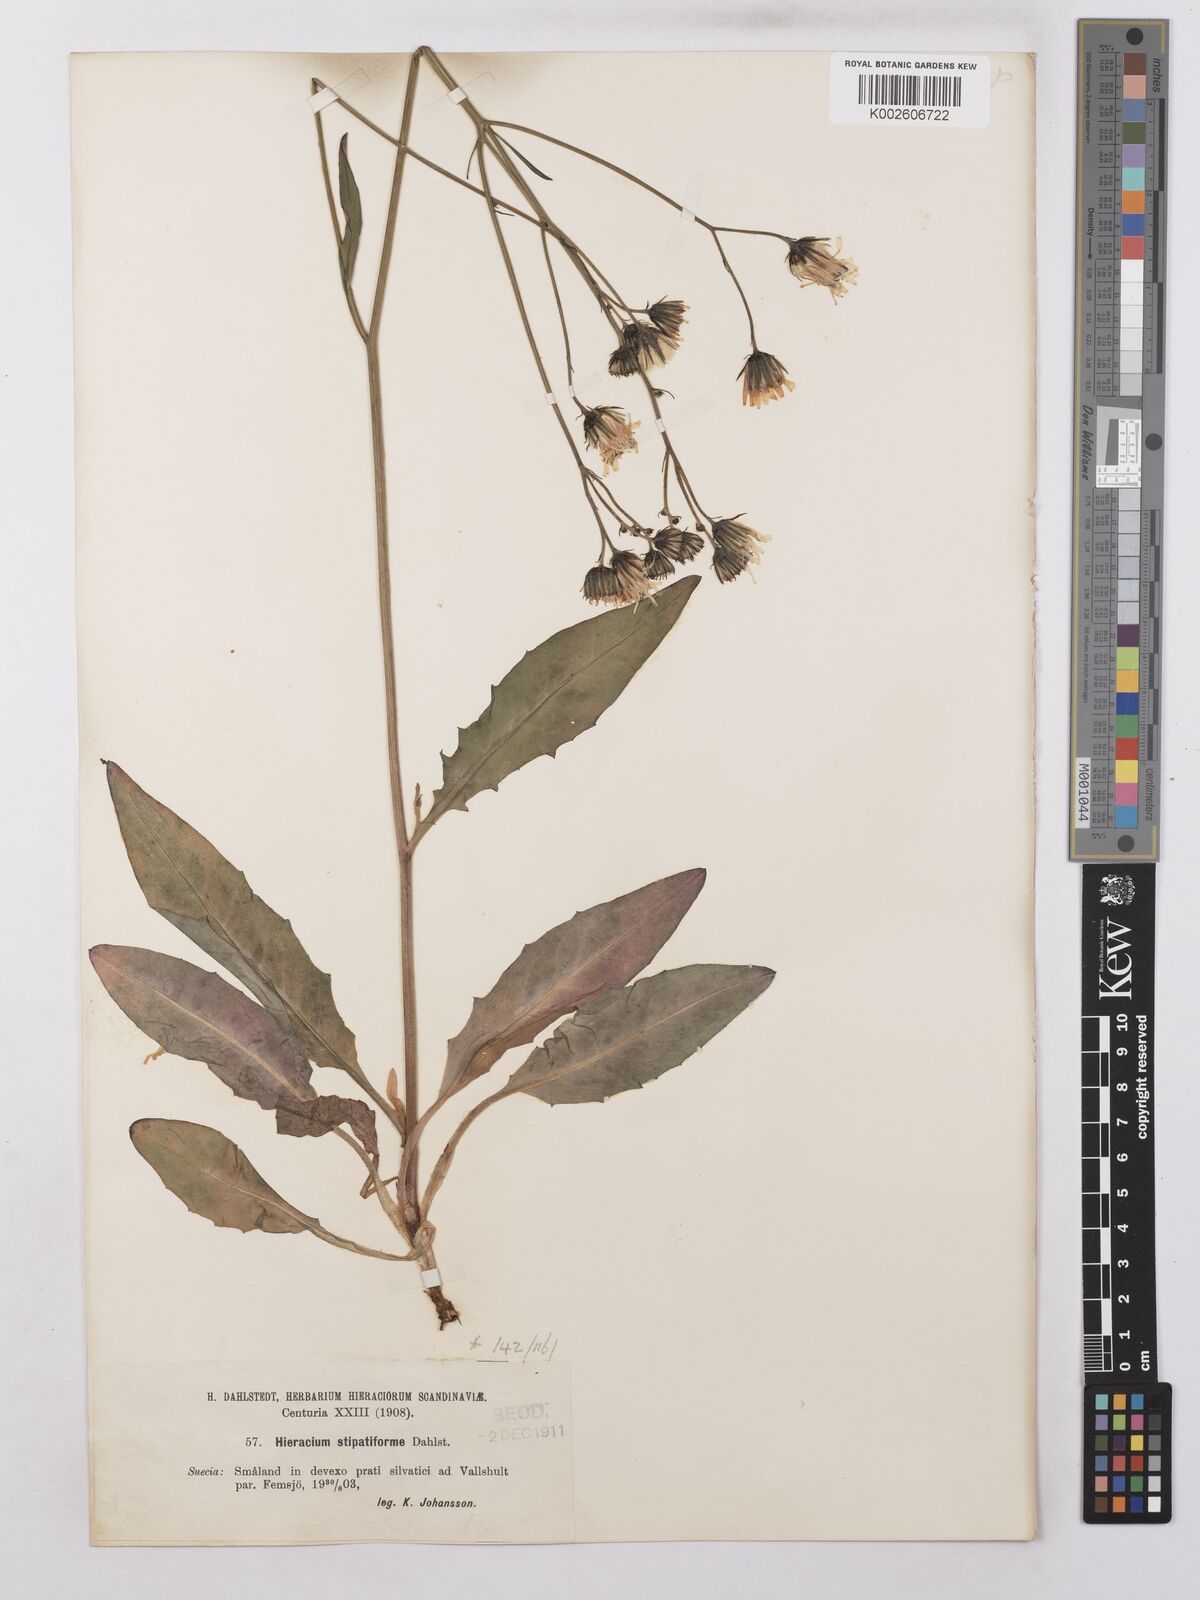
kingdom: Plantae
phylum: Tracheophyta
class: Magnoliopsida
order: Asterales
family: Asteraceae
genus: Hieracium
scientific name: Hieracium lachenalii
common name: Common hawkweed
